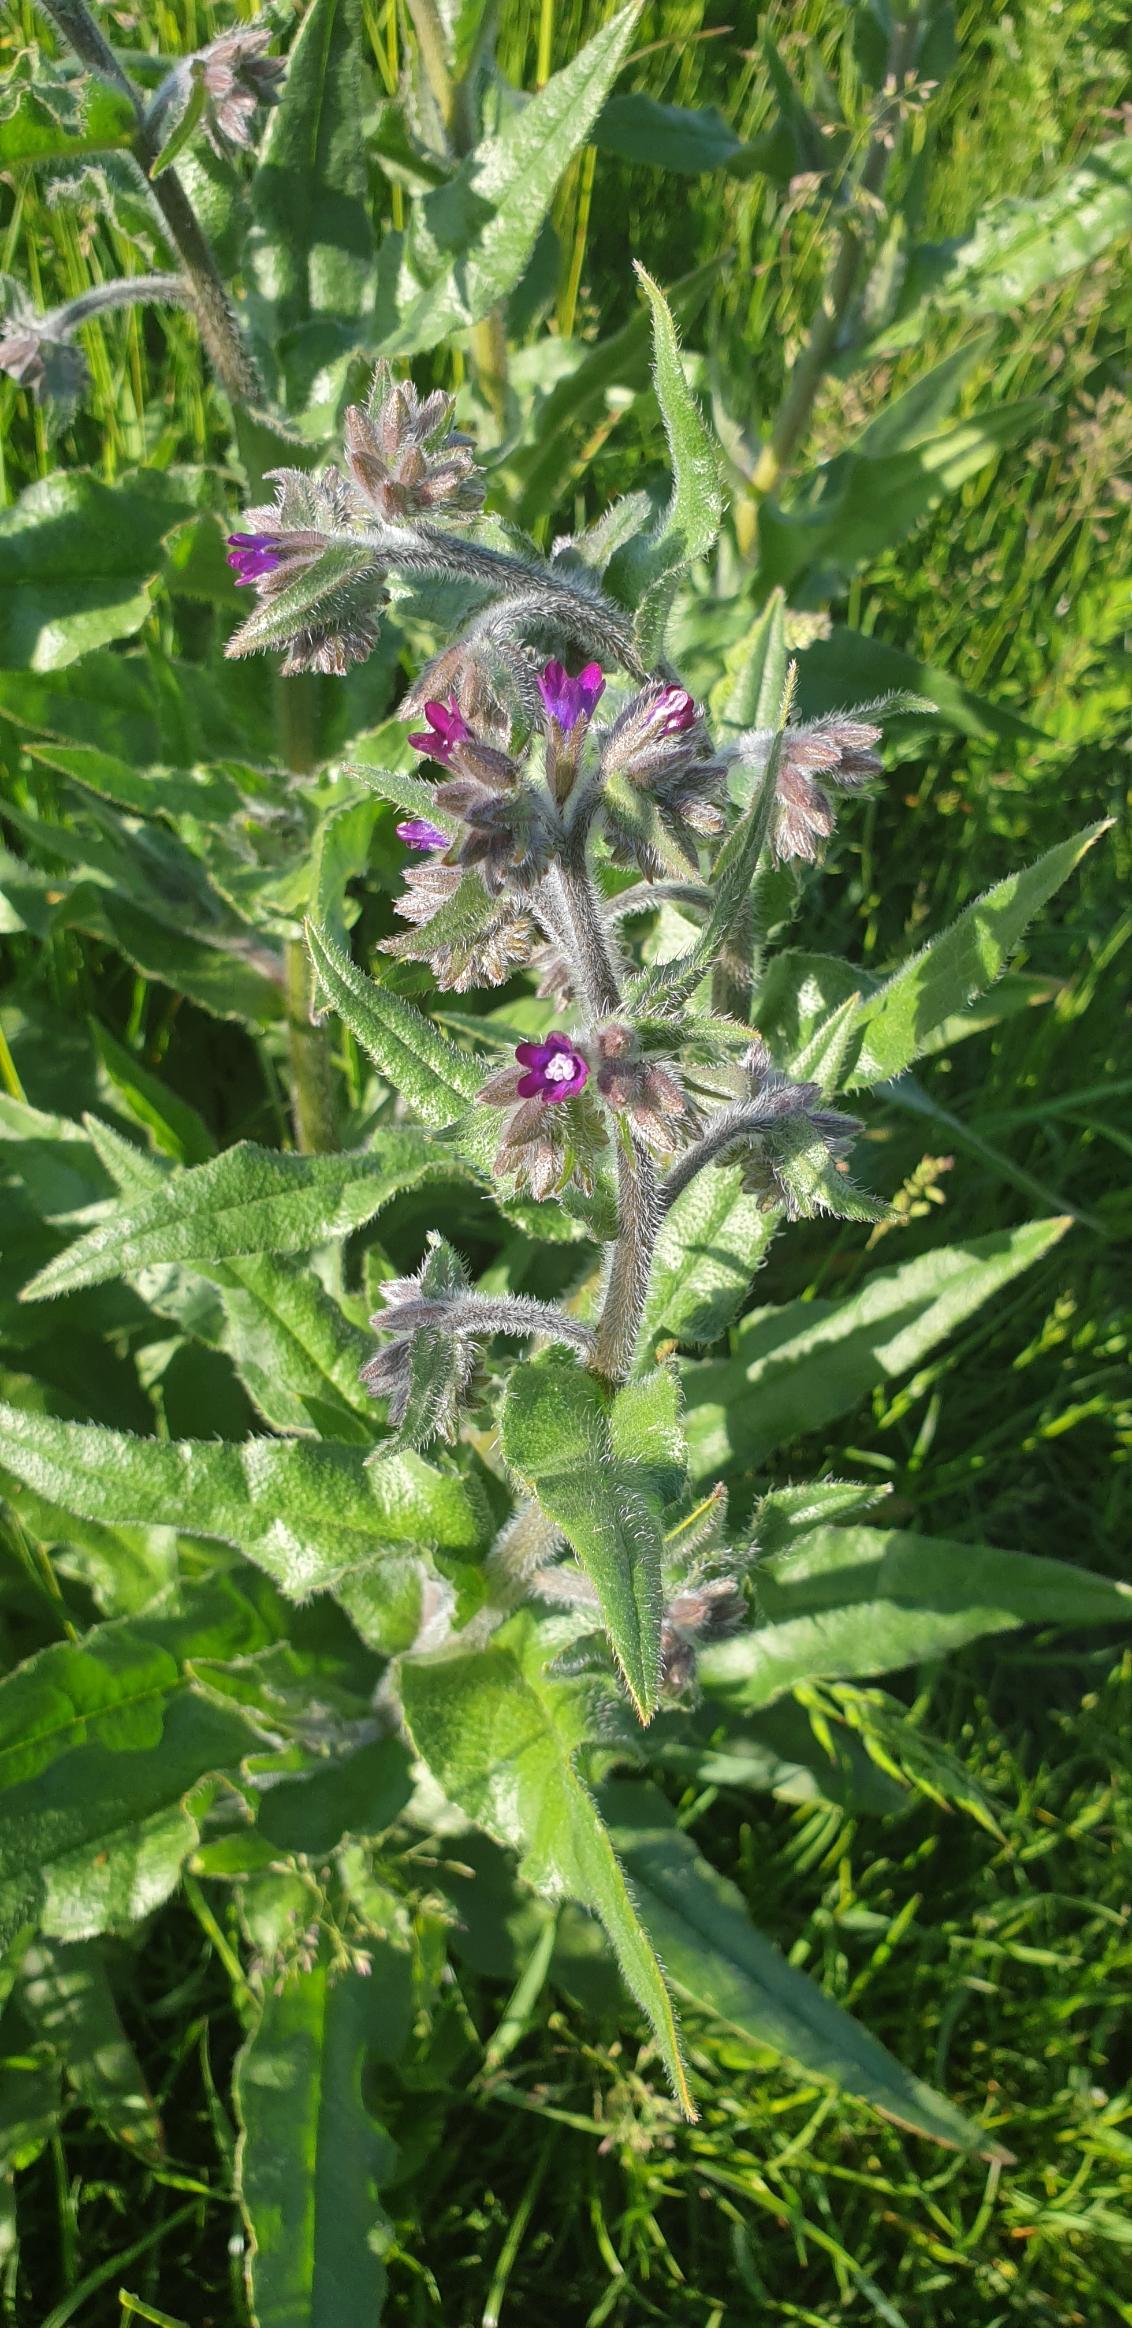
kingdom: Plantae
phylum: Tracheophyta
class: Magnoliopsida
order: Boraginales
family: Boraginaceae
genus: Anchusa
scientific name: Anchusa officinalis
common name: Læge-oksetunge
